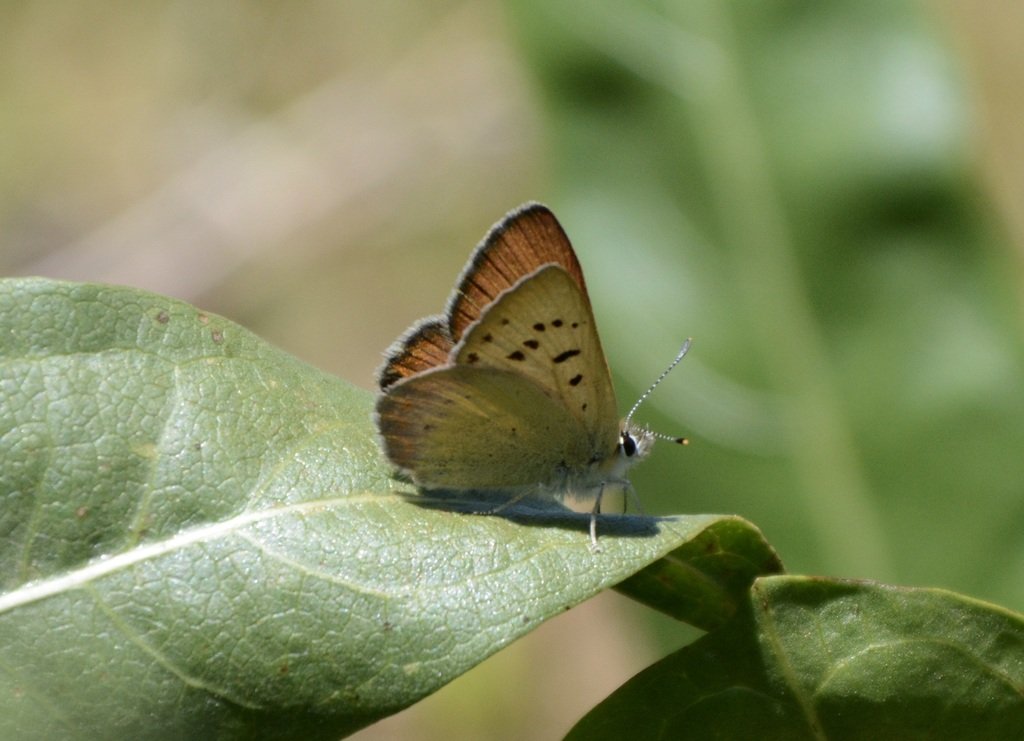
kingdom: Animalia
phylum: Arthropoda
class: Insecta
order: Lepidoptera
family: Lycaenidae
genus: Lycaena
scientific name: Lycaena nivalis
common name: Lilac-bordered Copper
